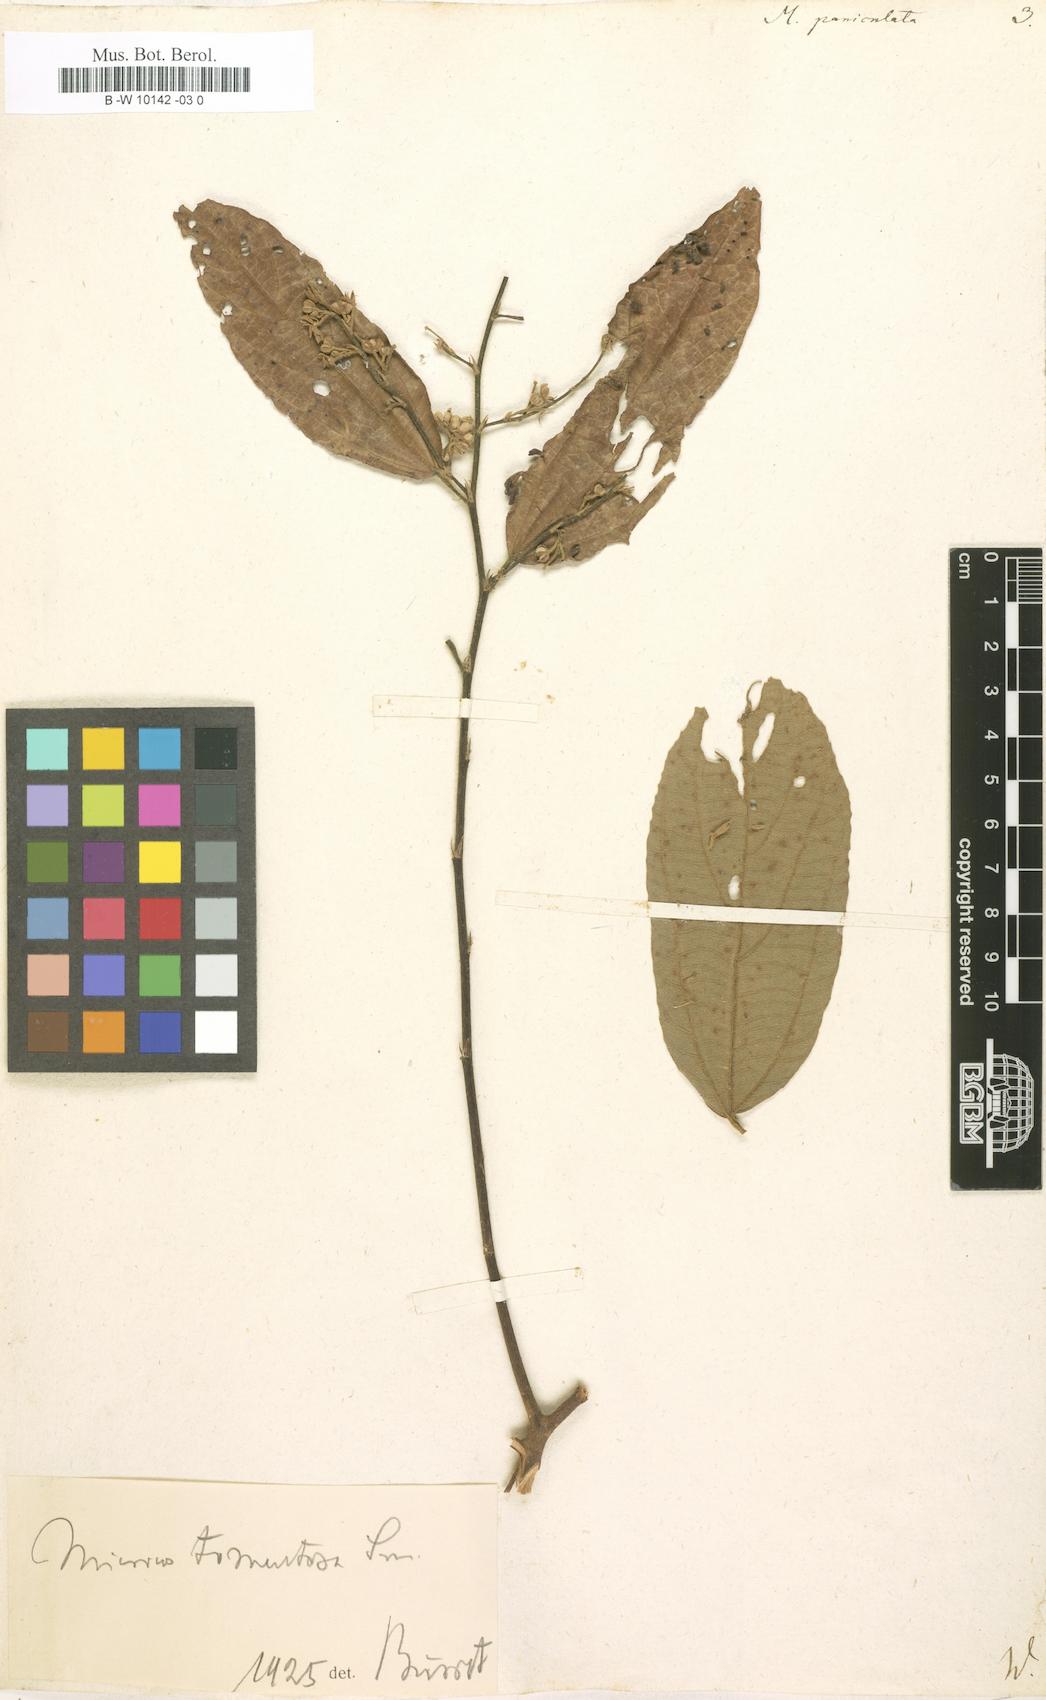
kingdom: Plantae
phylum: Tracheophyta
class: Magnoliopsida
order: Malvales
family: Malvaceae
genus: Microcos
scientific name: Microcos paniculata
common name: Microcos
